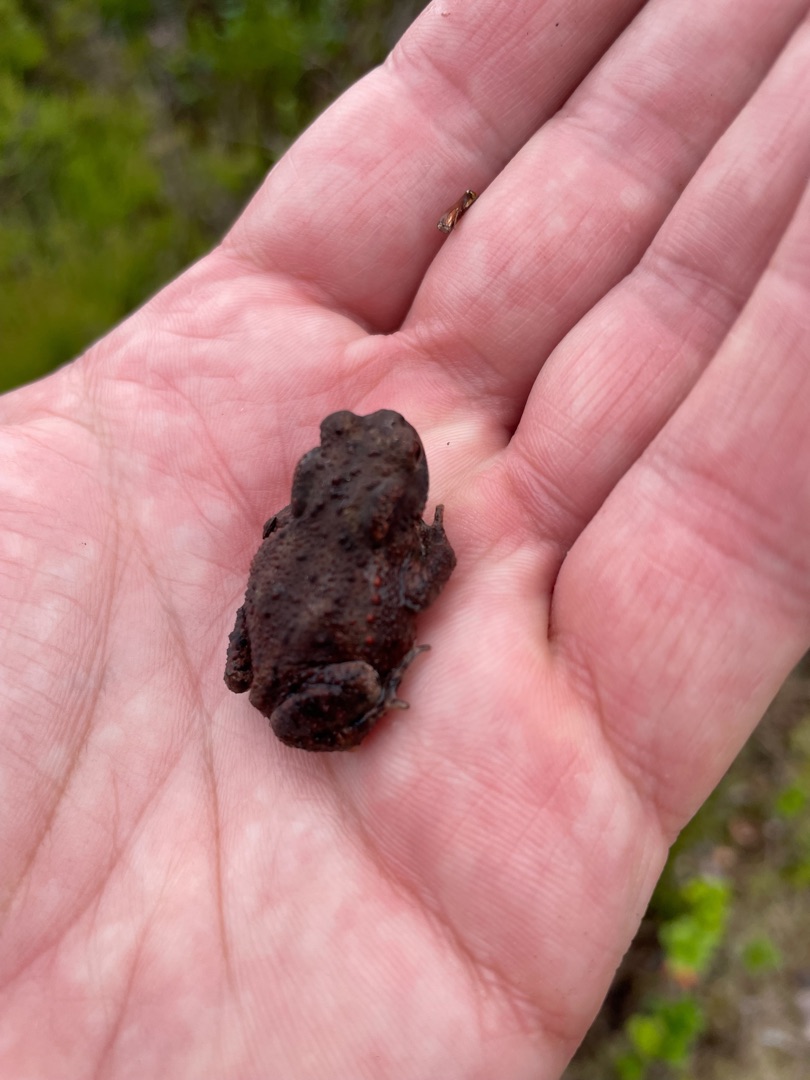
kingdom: Animalia
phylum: Chordata
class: Amphibia
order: Anura
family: Bufonidae
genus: Bufo
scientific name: Bufo bufo
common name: Skrubtudse
